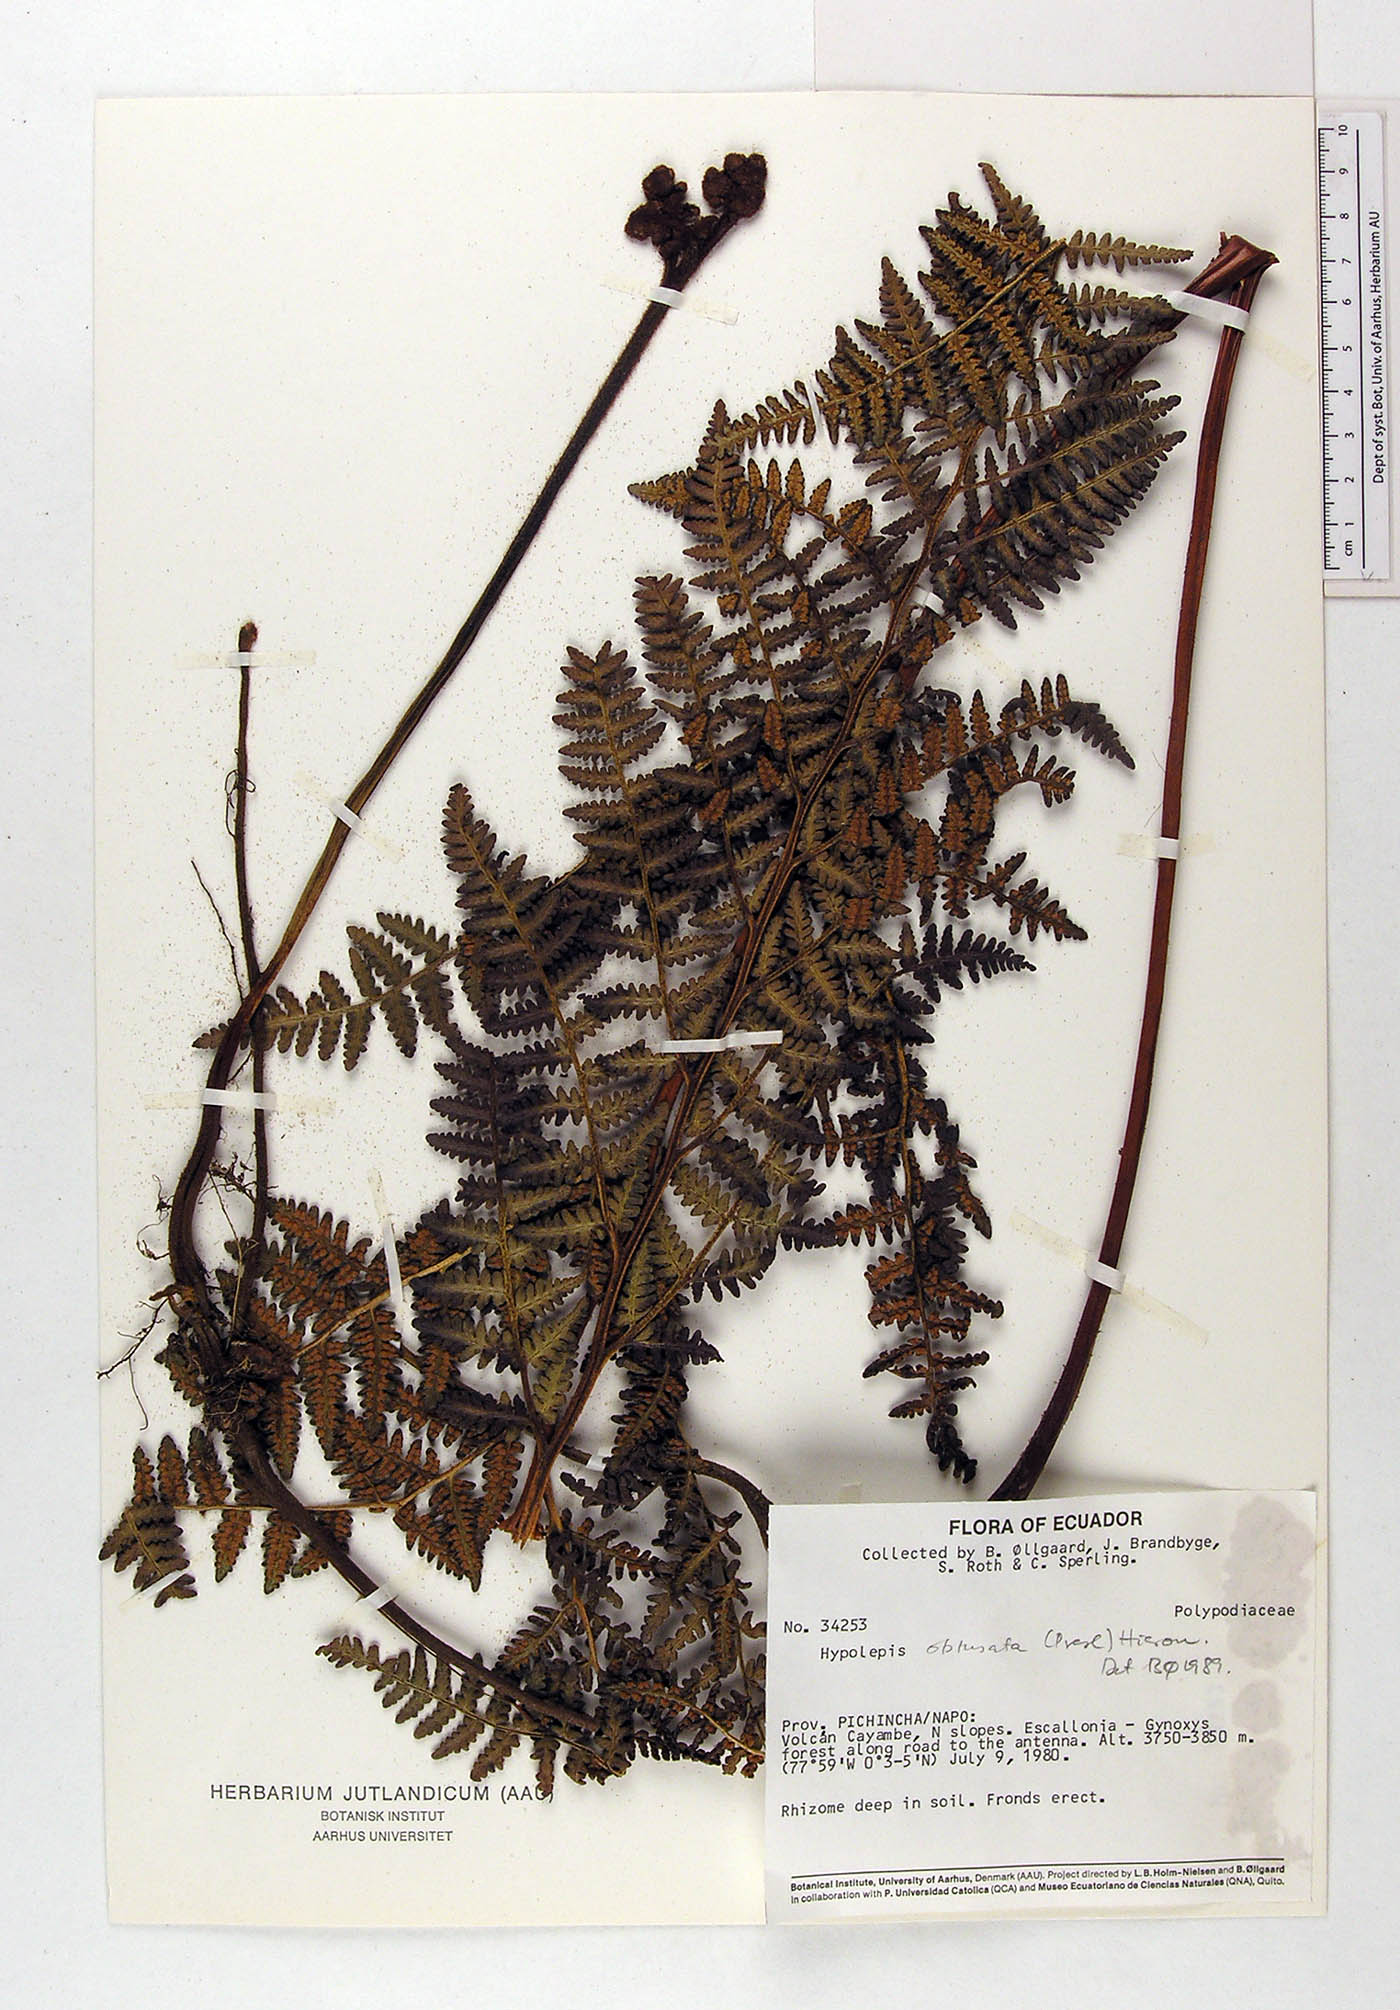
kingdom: Plantae
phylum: Tracheophyta
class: Polypodiopsida
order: Polypodiales
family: Dennstaedtiaceae
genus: Hypolepis
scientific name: Hypolepis obtusata
